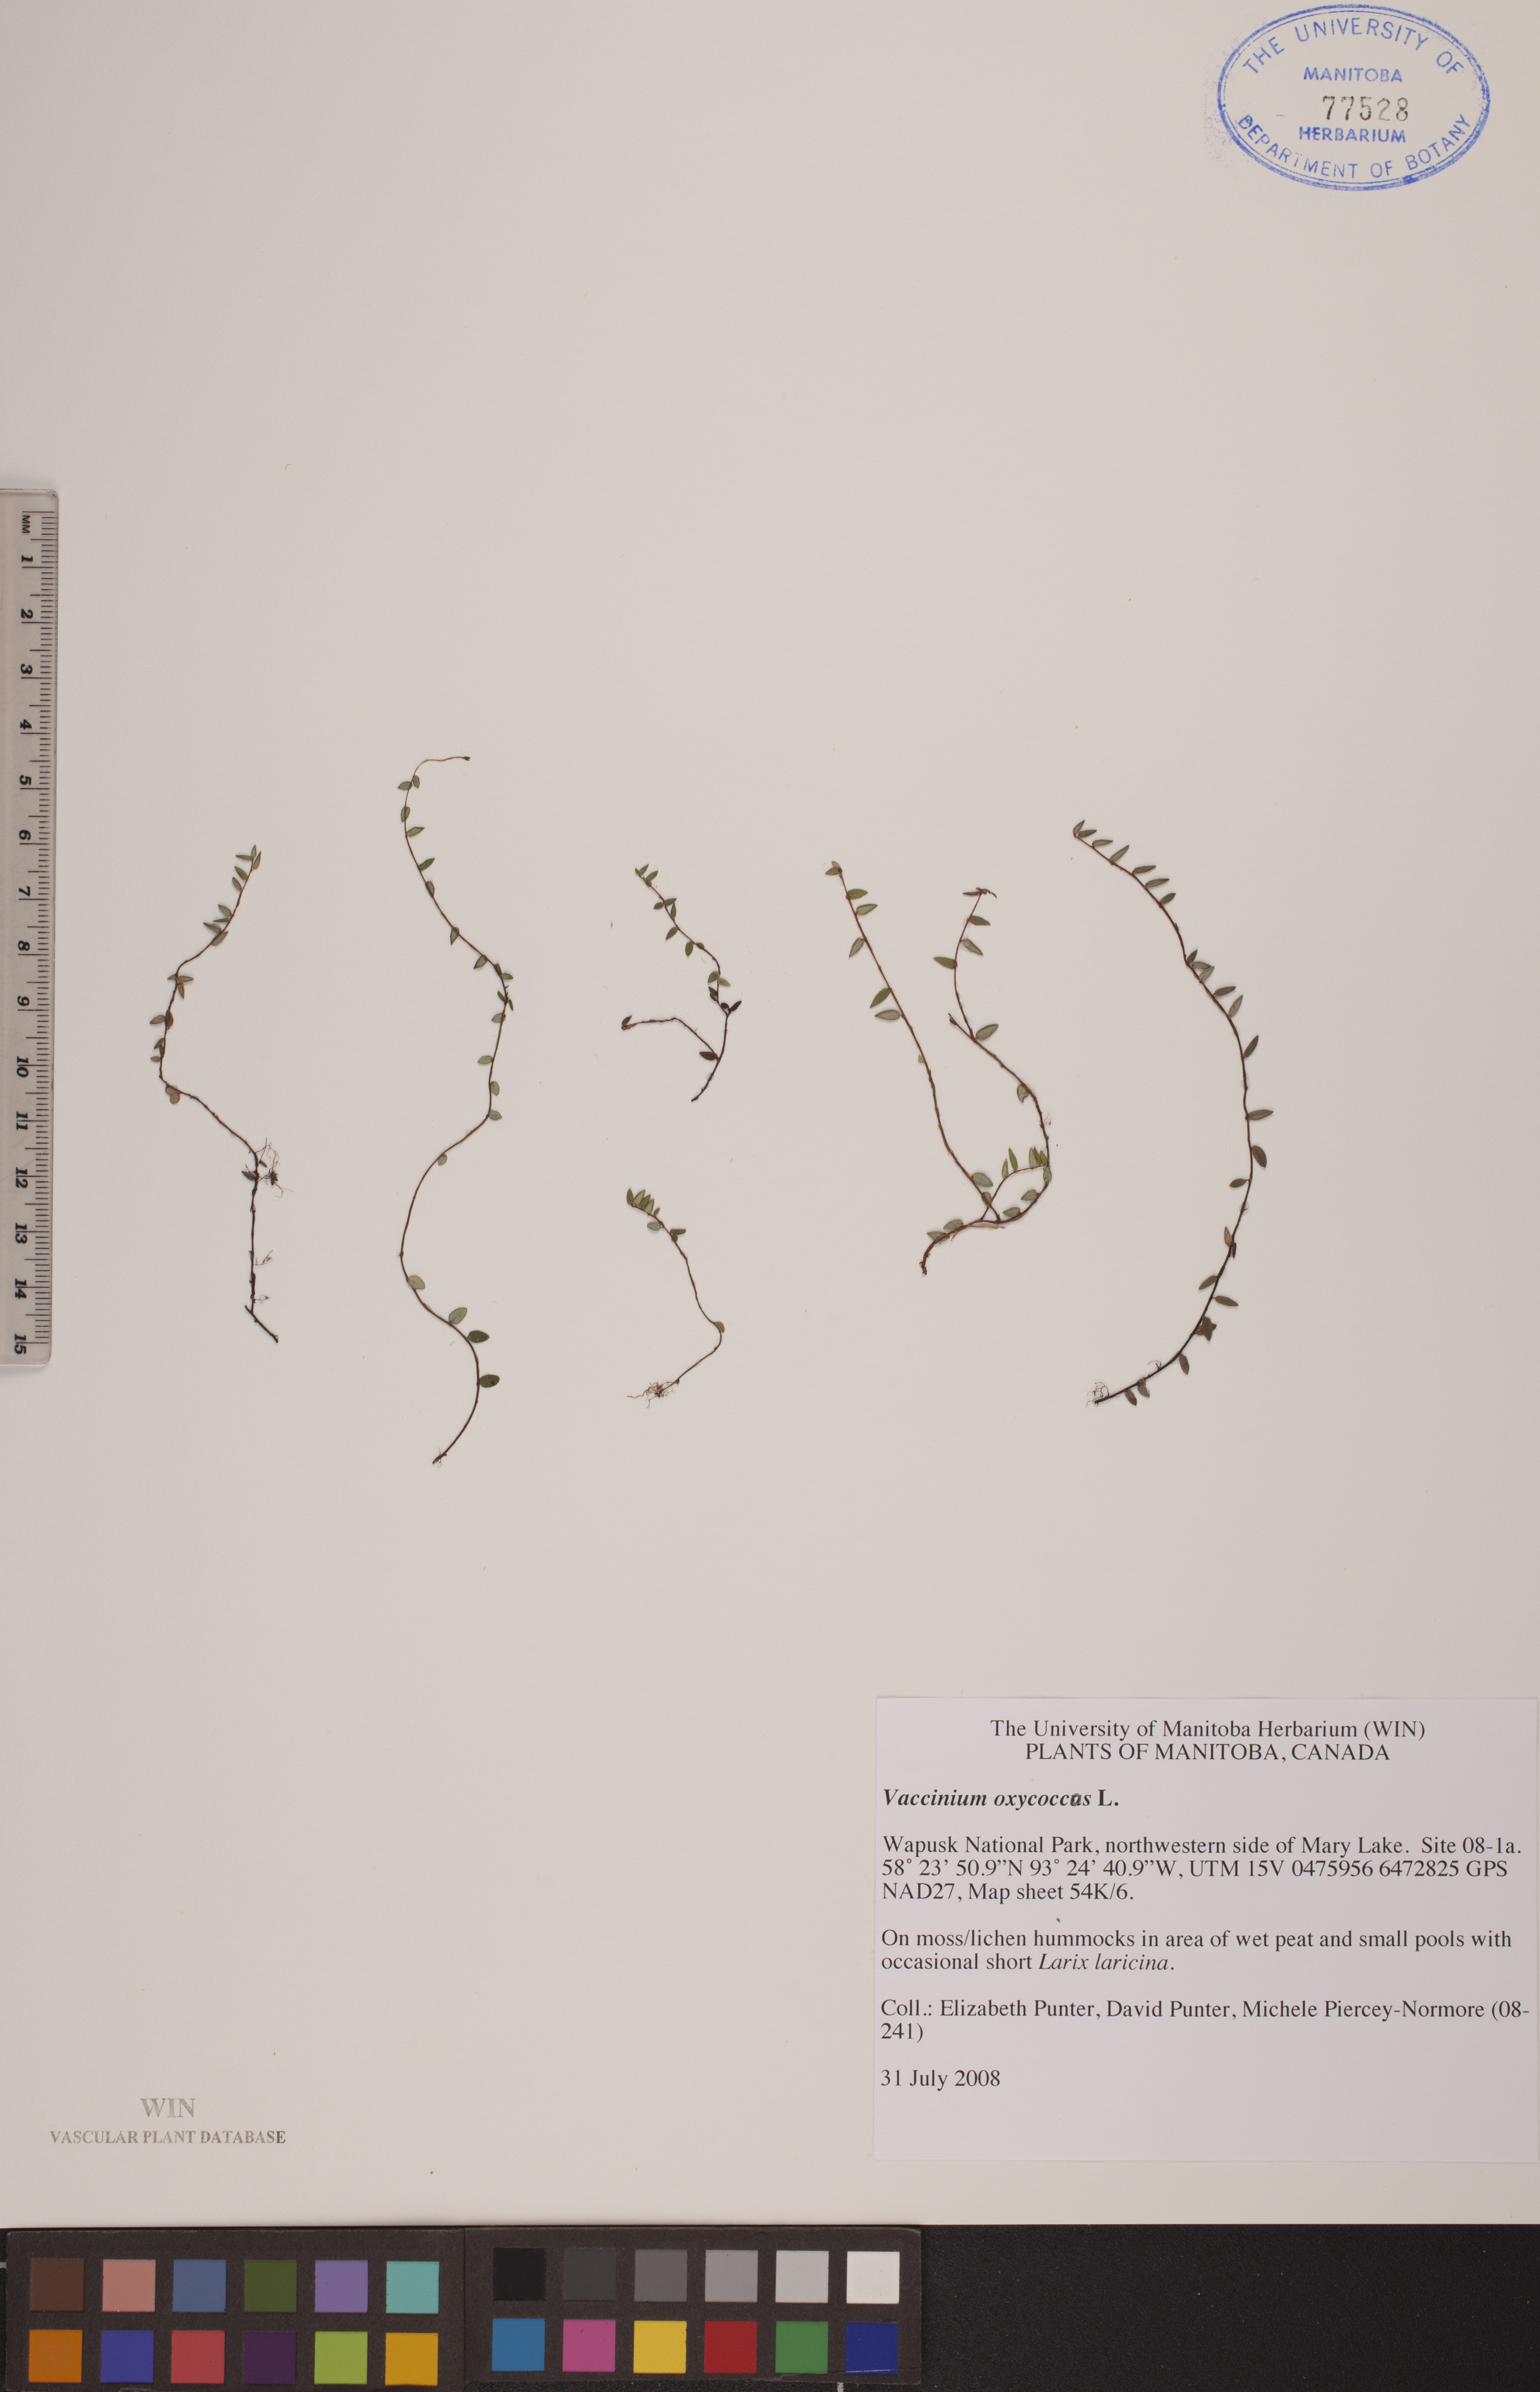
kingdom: Plantae
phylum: Tracheophyta
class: Magnoliopsida
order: Ericales
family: Ericaceae
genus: Vaccinium
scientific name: Vaccinium oxycoccos
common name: Cranberry
